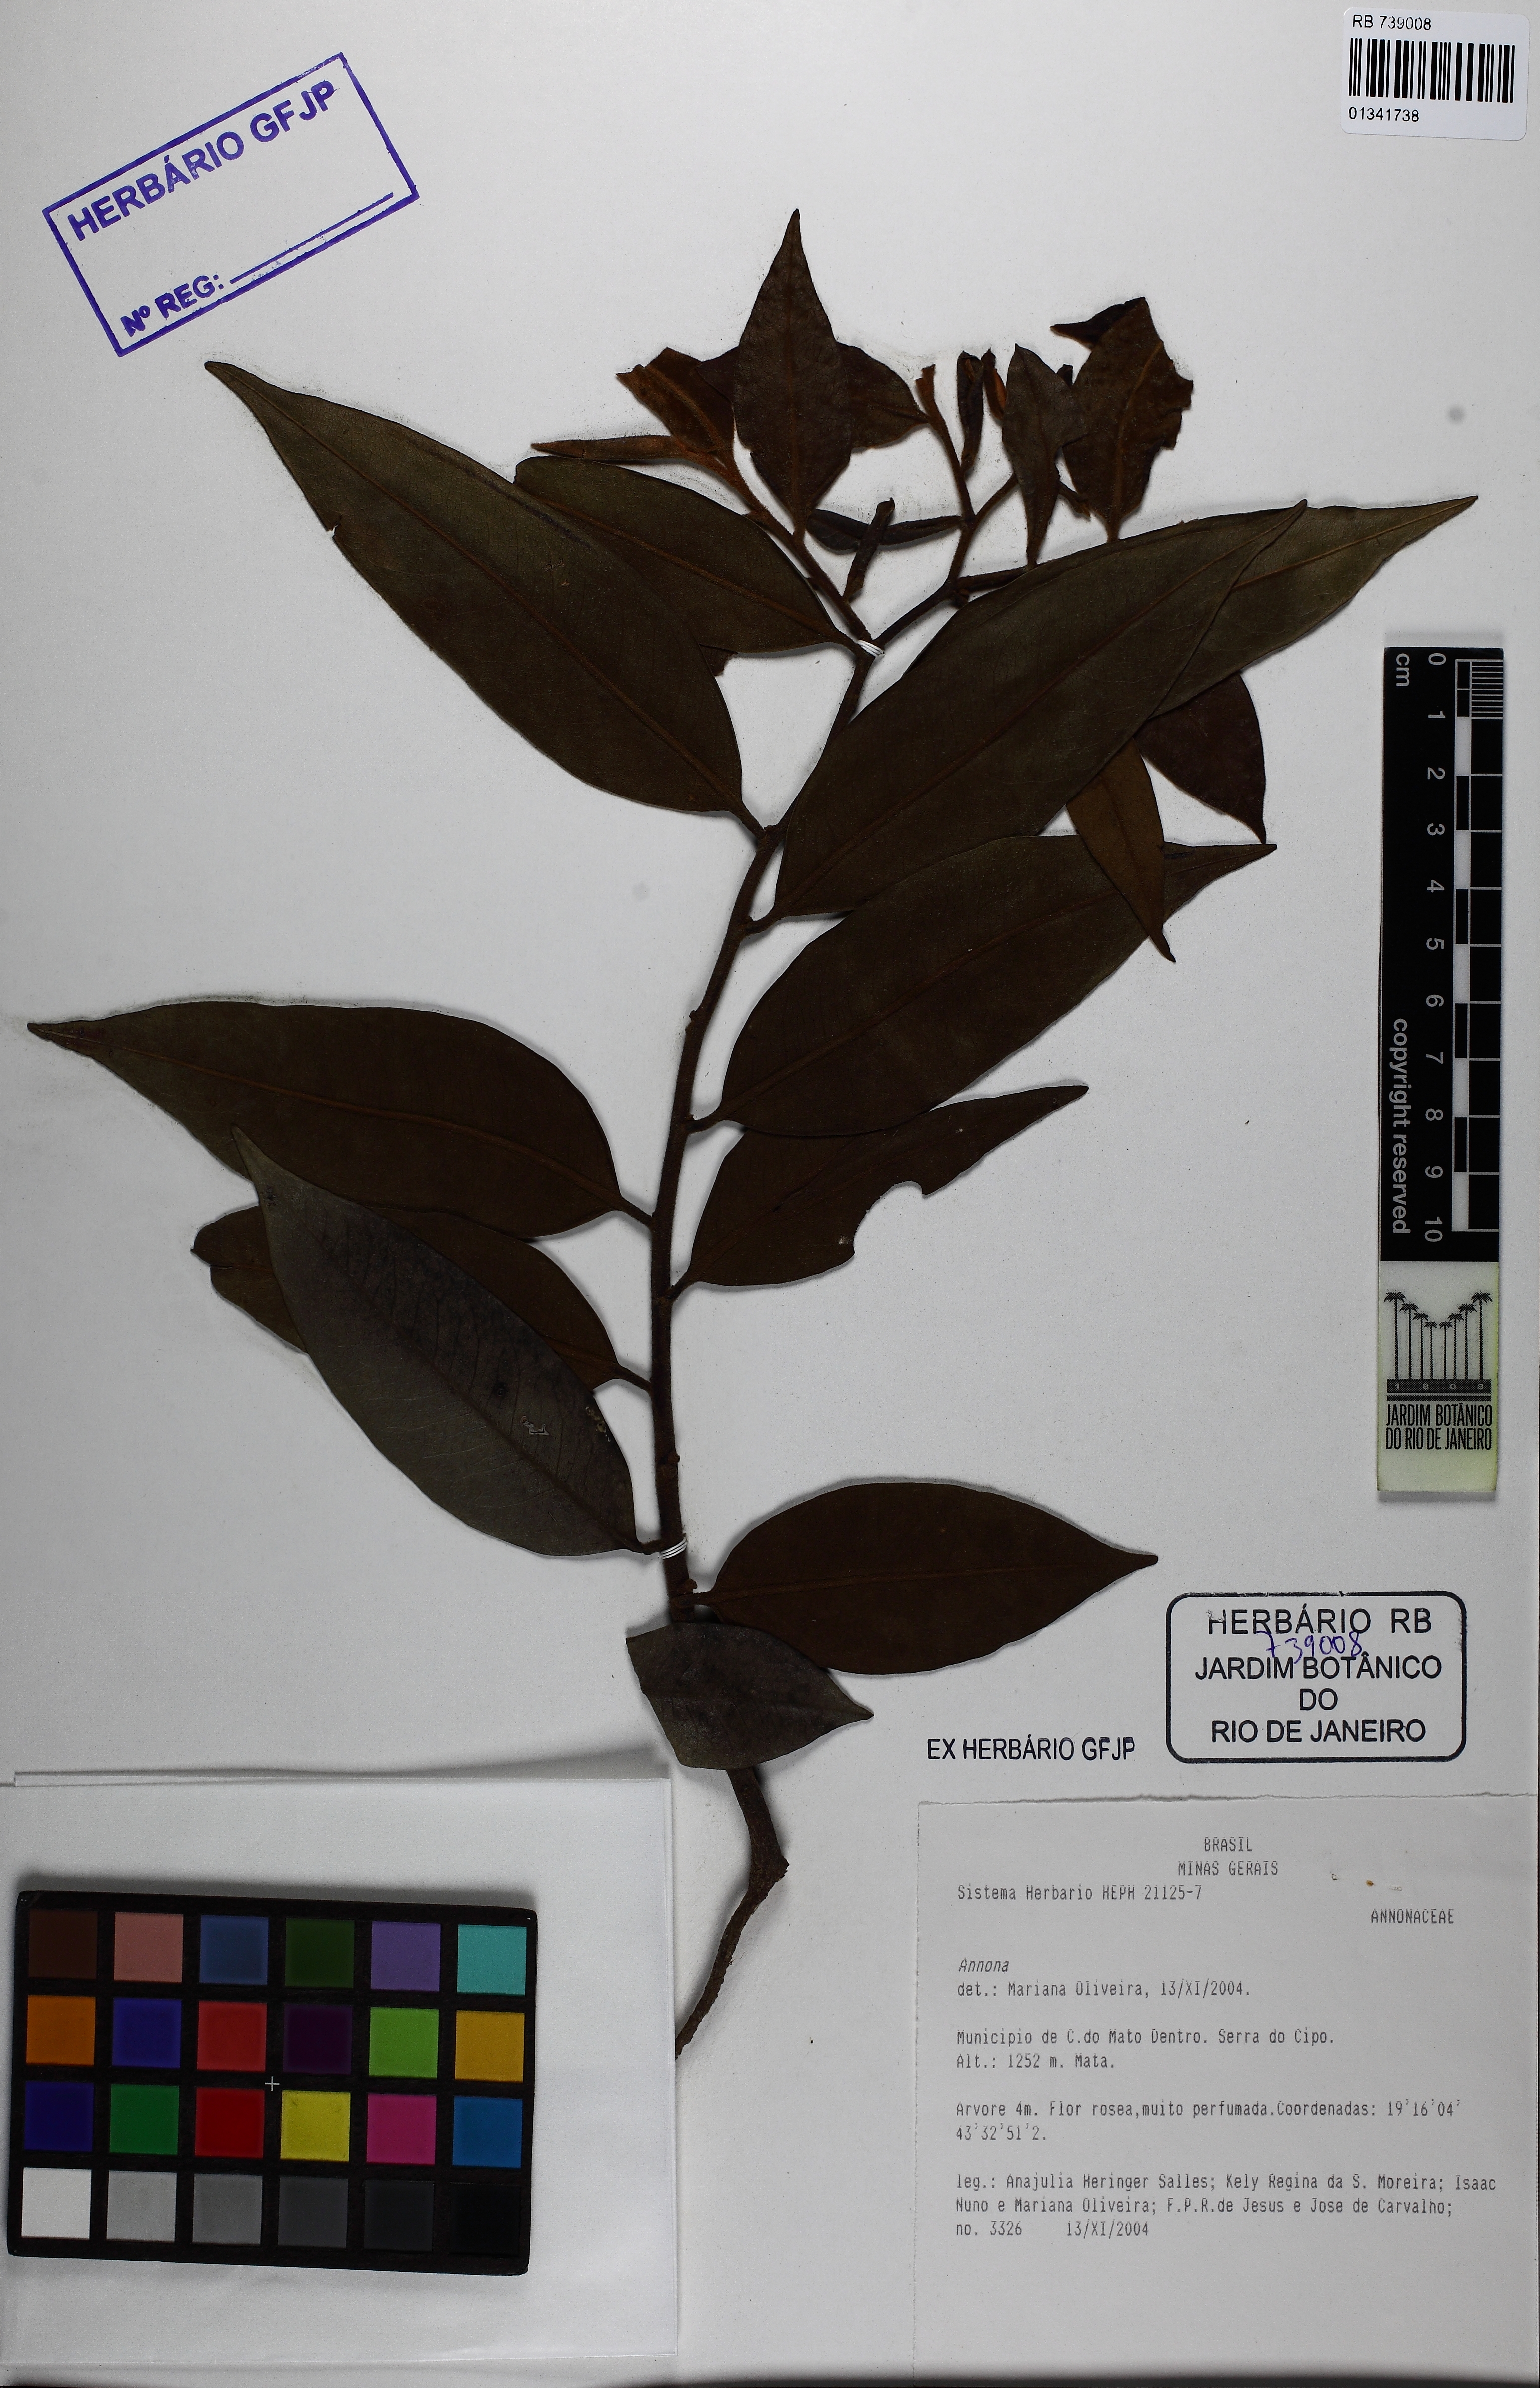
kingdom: Plantae
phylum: Tracheophyta
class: Magnoliopsida
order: Magnoliales
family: Annonaceae
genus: Annona
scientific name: Annona
